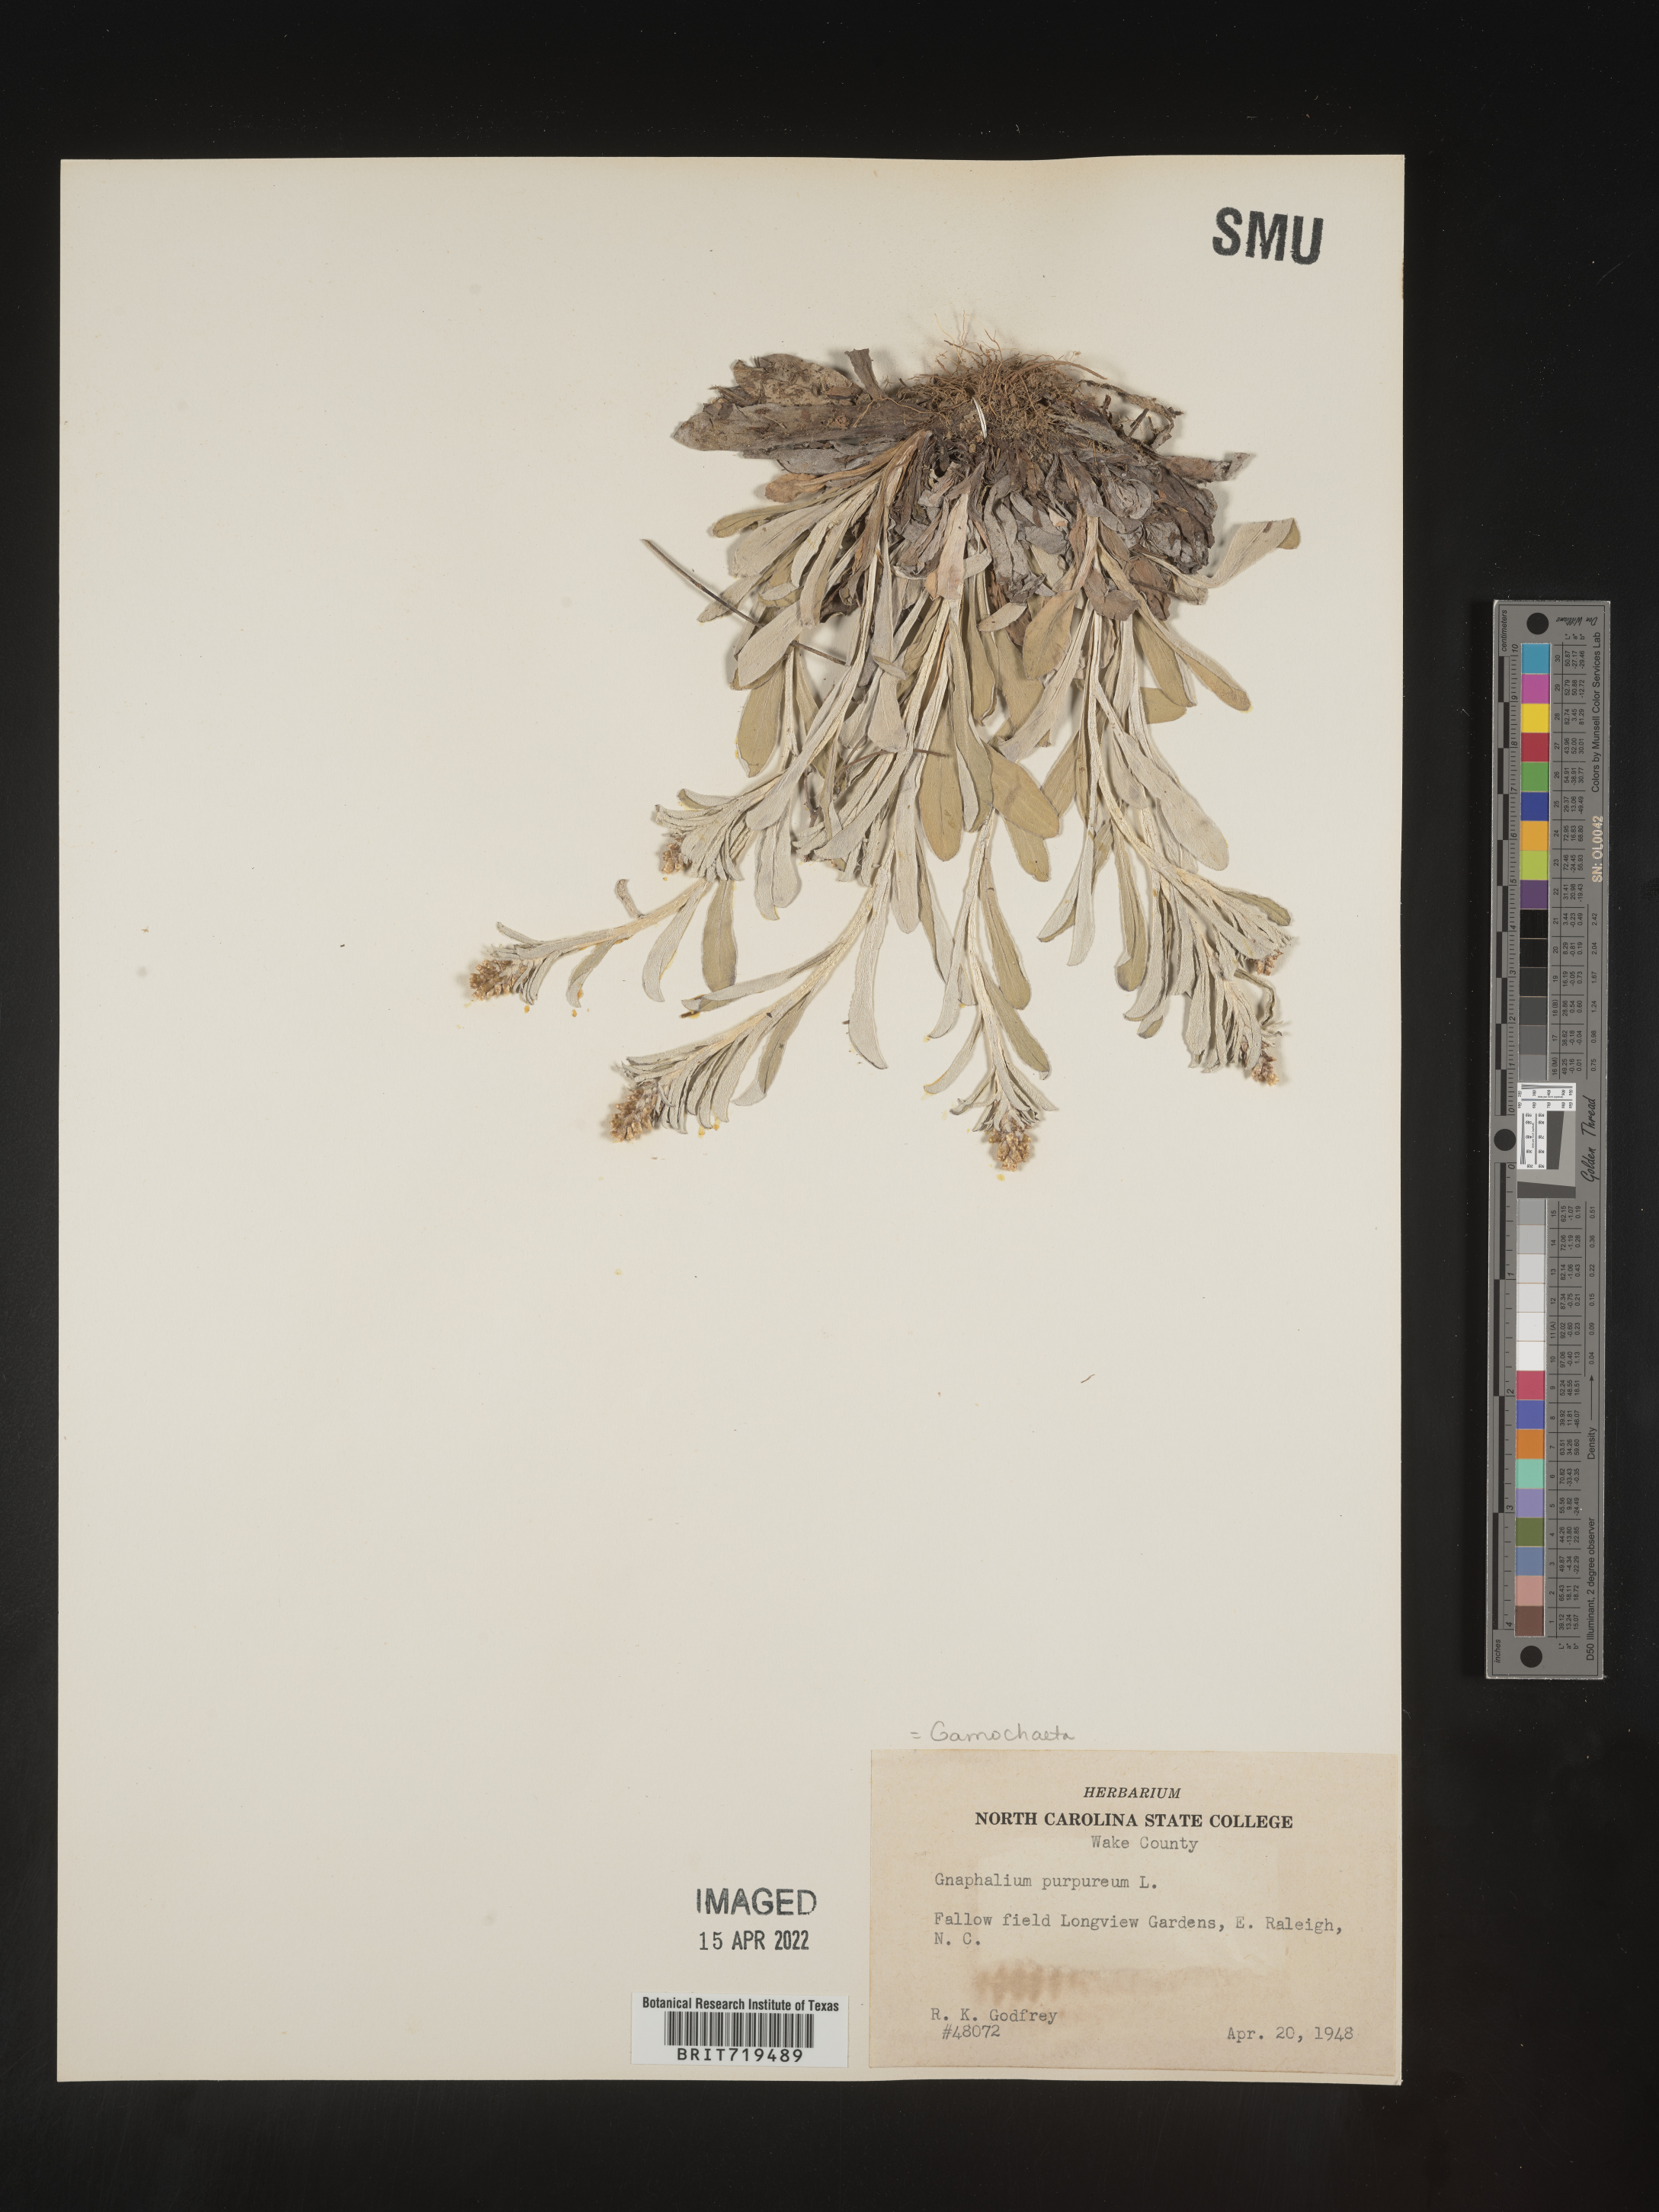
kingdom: Plantae
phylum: Tracheophyta
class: Magnoliopsida
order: Asterales
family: Asteraceae
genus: Gamochaeta
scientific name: Gamochaeta argyrinea
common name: Silvery cudweed
